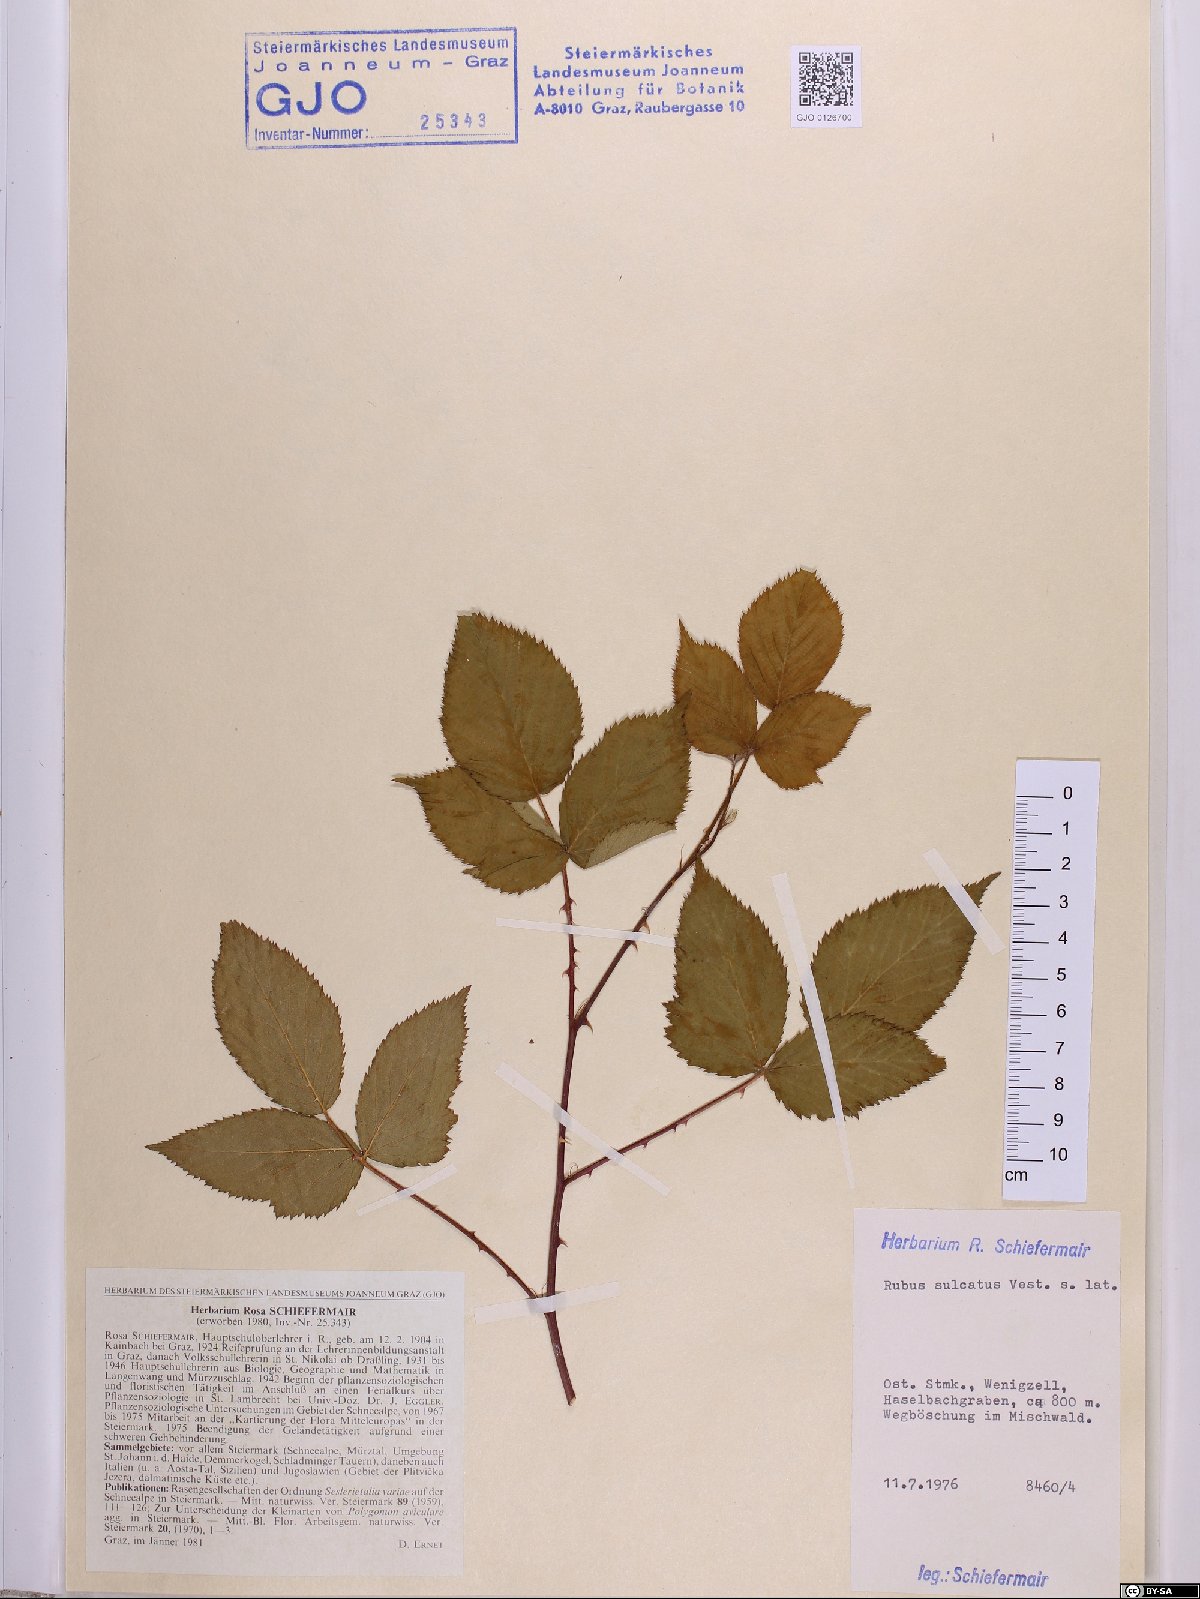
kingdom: Plantae
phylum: Tracheophyta
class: Magnoliopsida
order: Rosales
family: Rosaceae
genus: Rubus
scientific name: Rubus sulcatus
